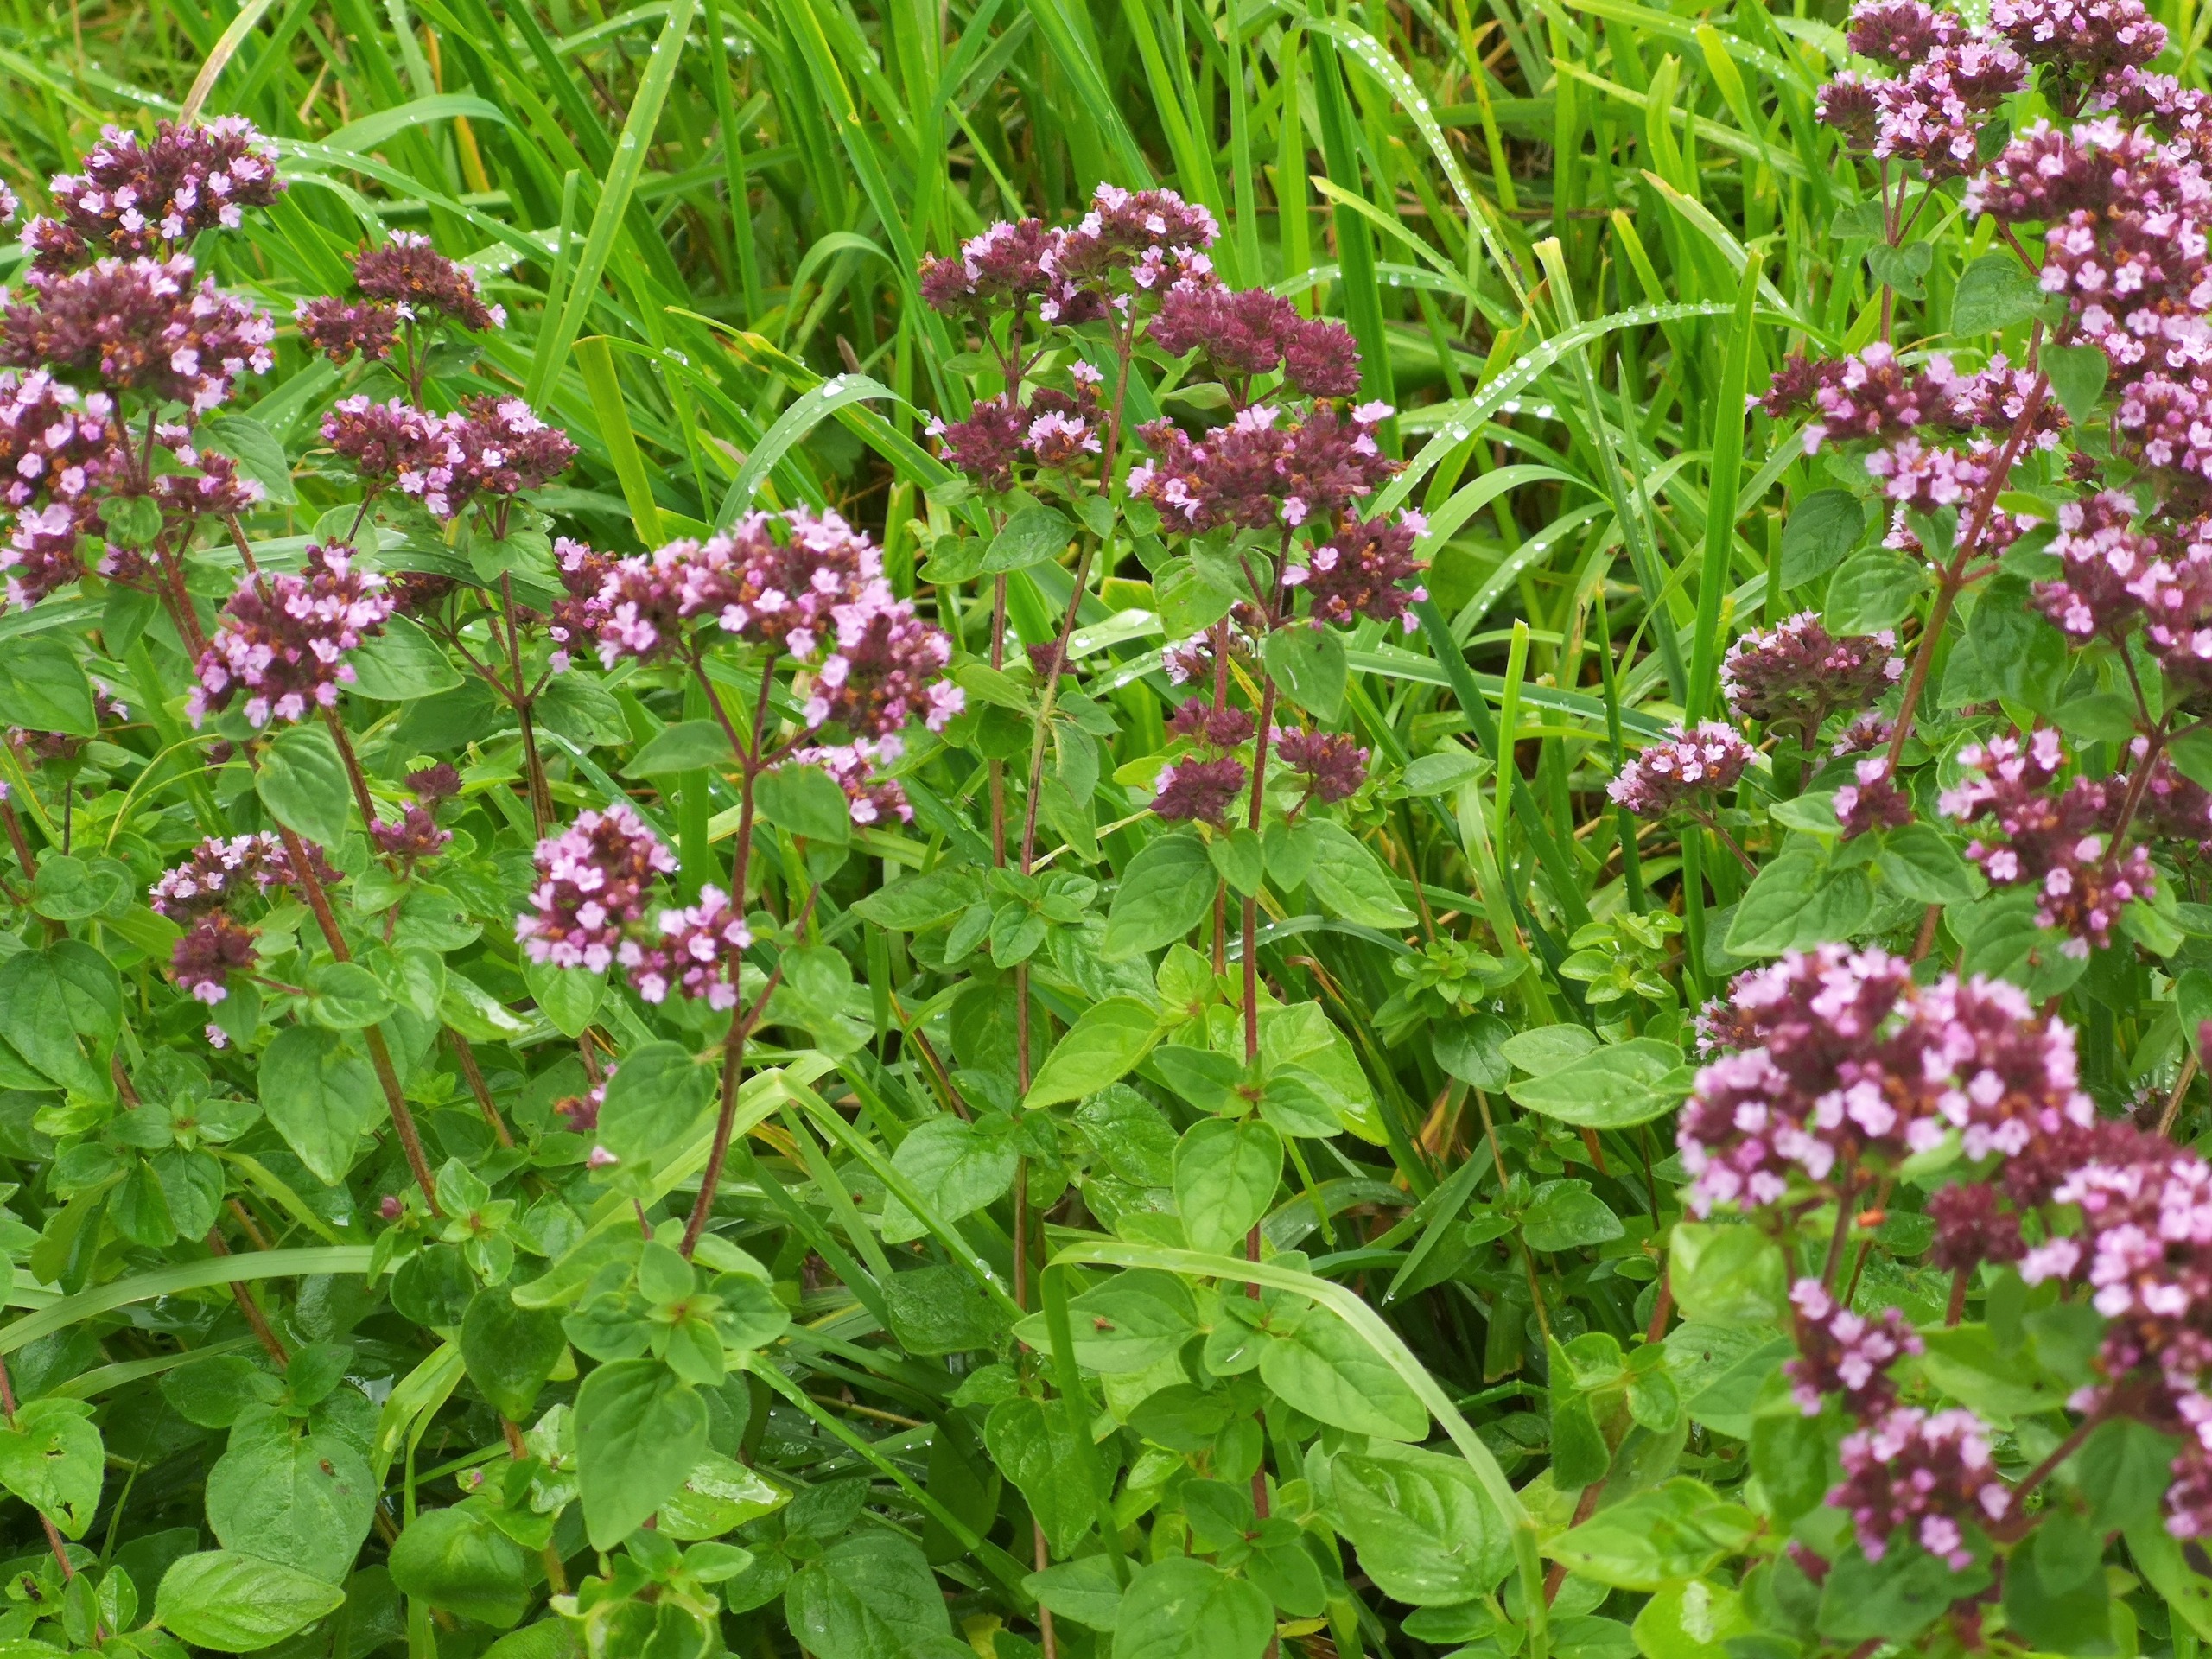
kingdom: Plantae
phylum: Tracheophyta
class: Magnoliopsida
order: Lamiales
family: Lamiaceae
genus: Origanum
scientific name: Origanum vulgare
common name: Merian
